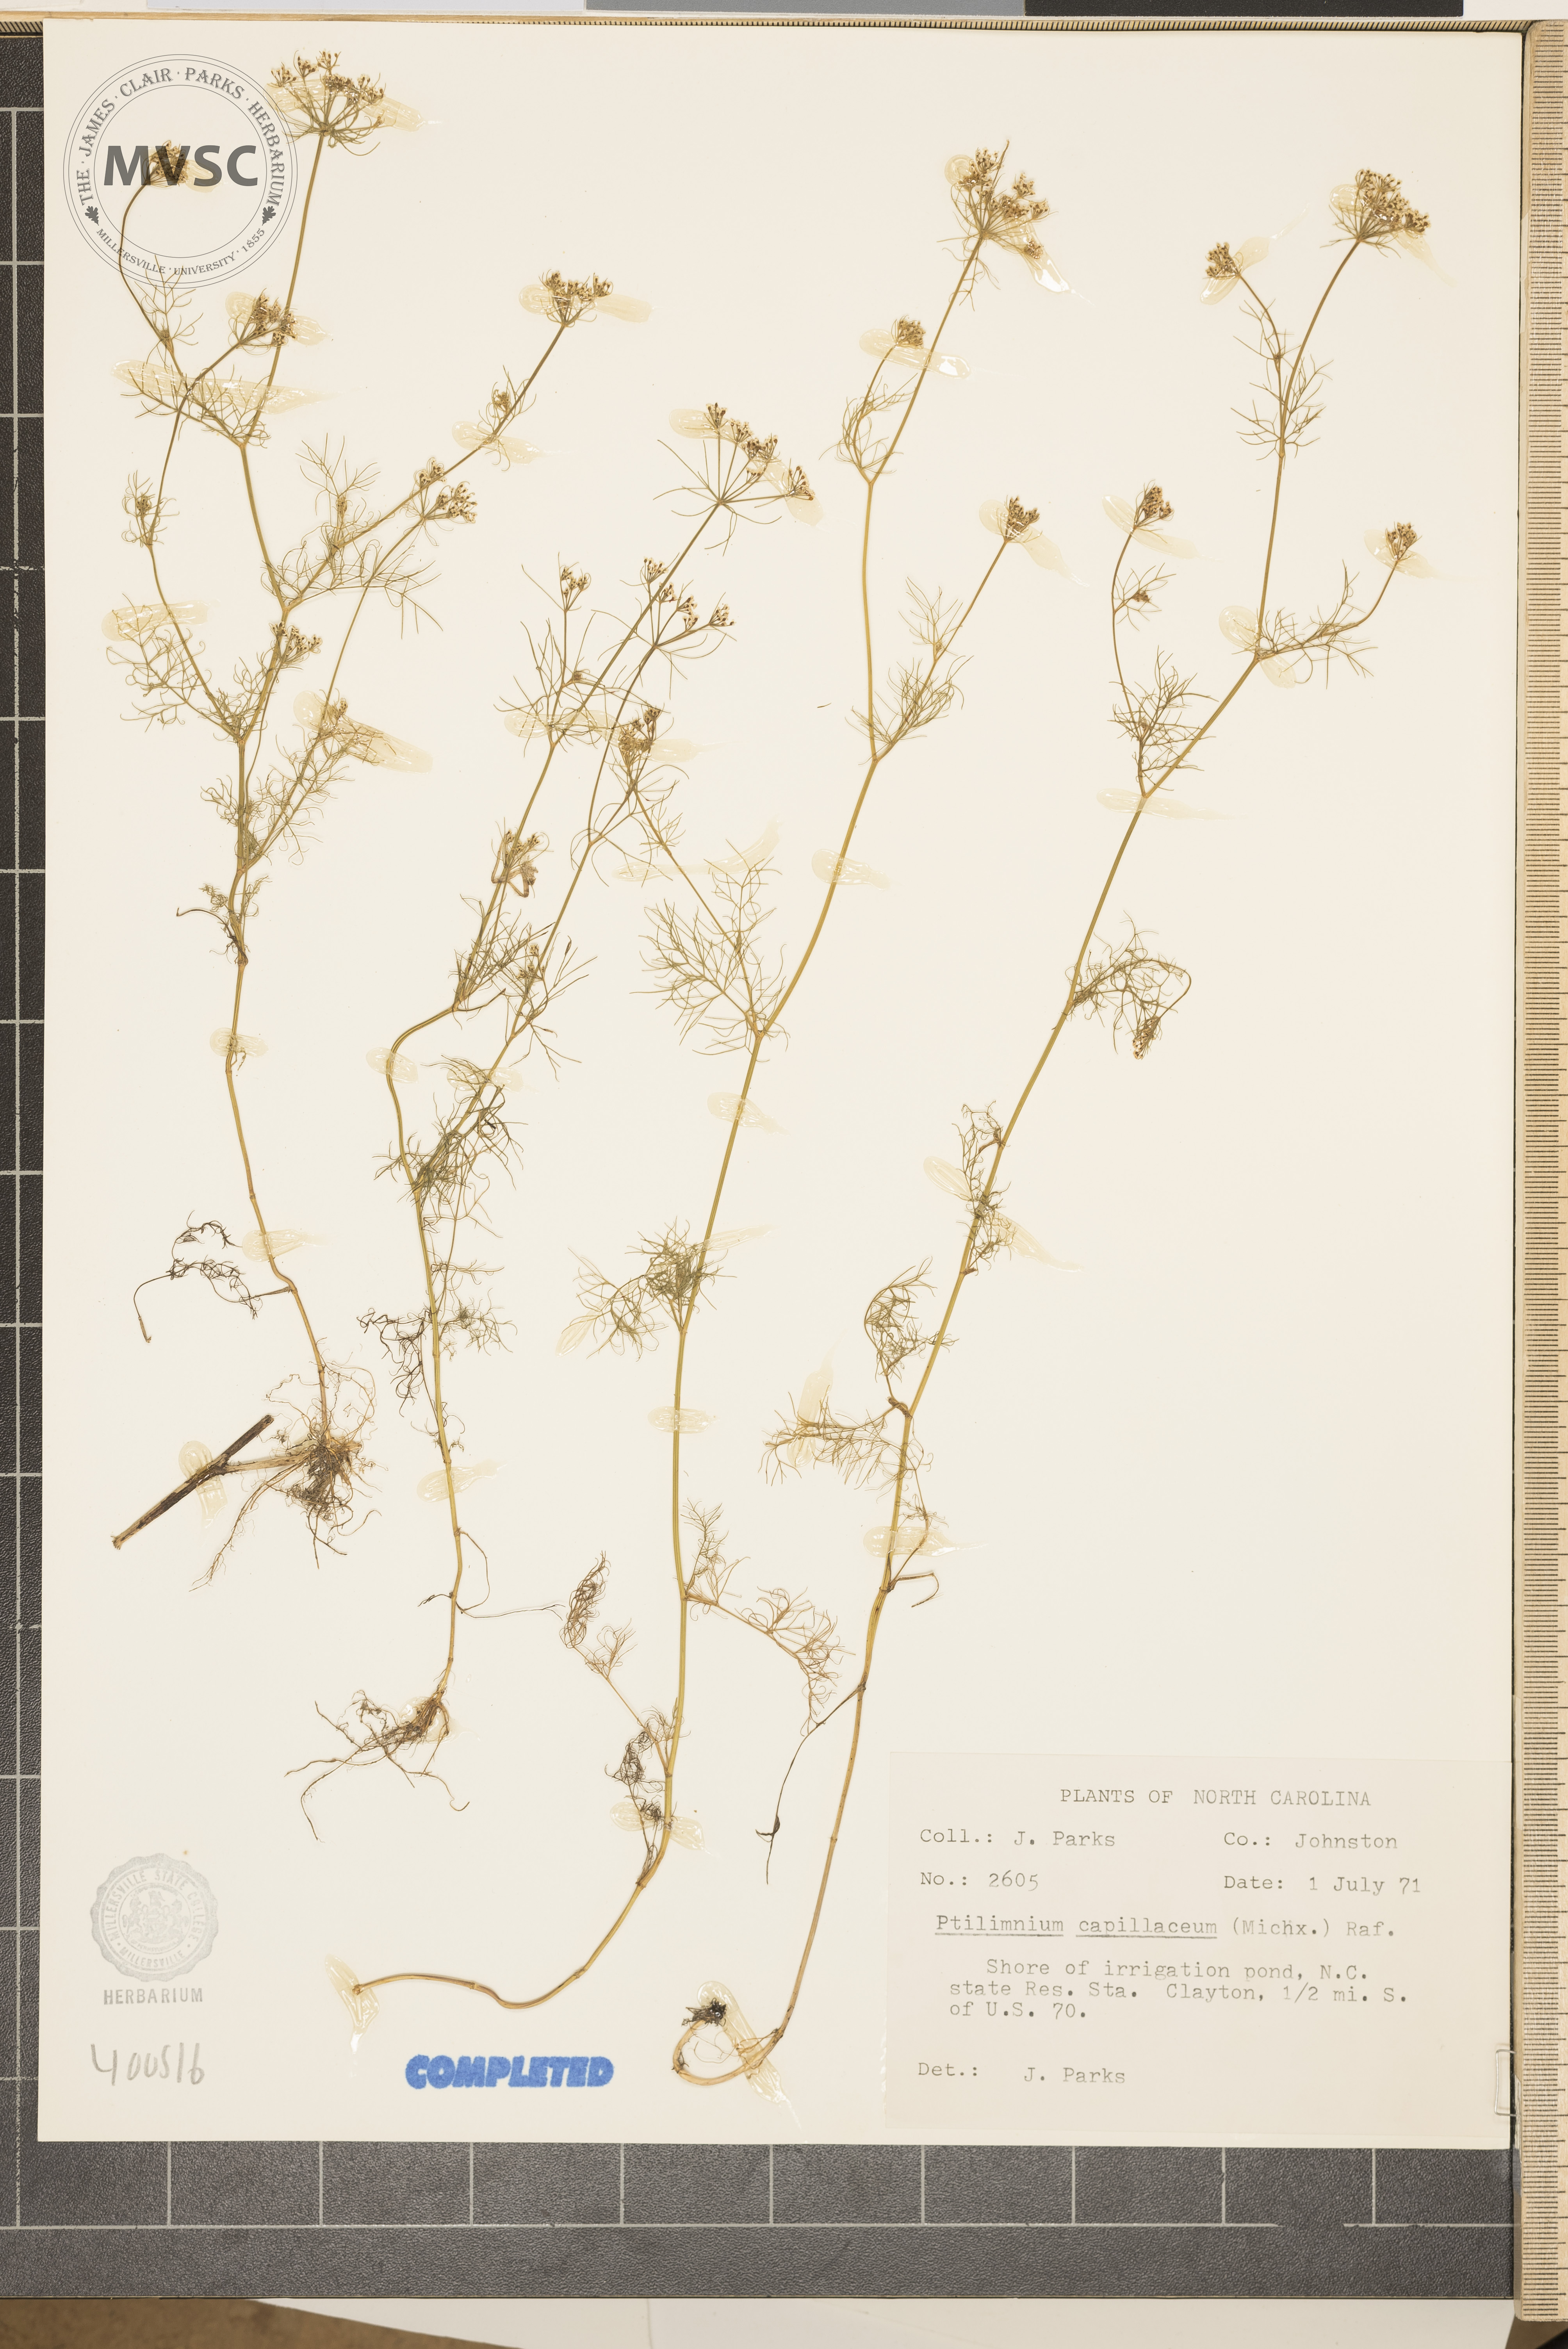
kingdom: Plantae
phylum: Tracheophyta
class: Magnoliopsida
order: Apiales
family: Apiaceae
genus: Ptilimnium
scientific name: Ptilimnium capillaceum
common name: Herbwilliam
